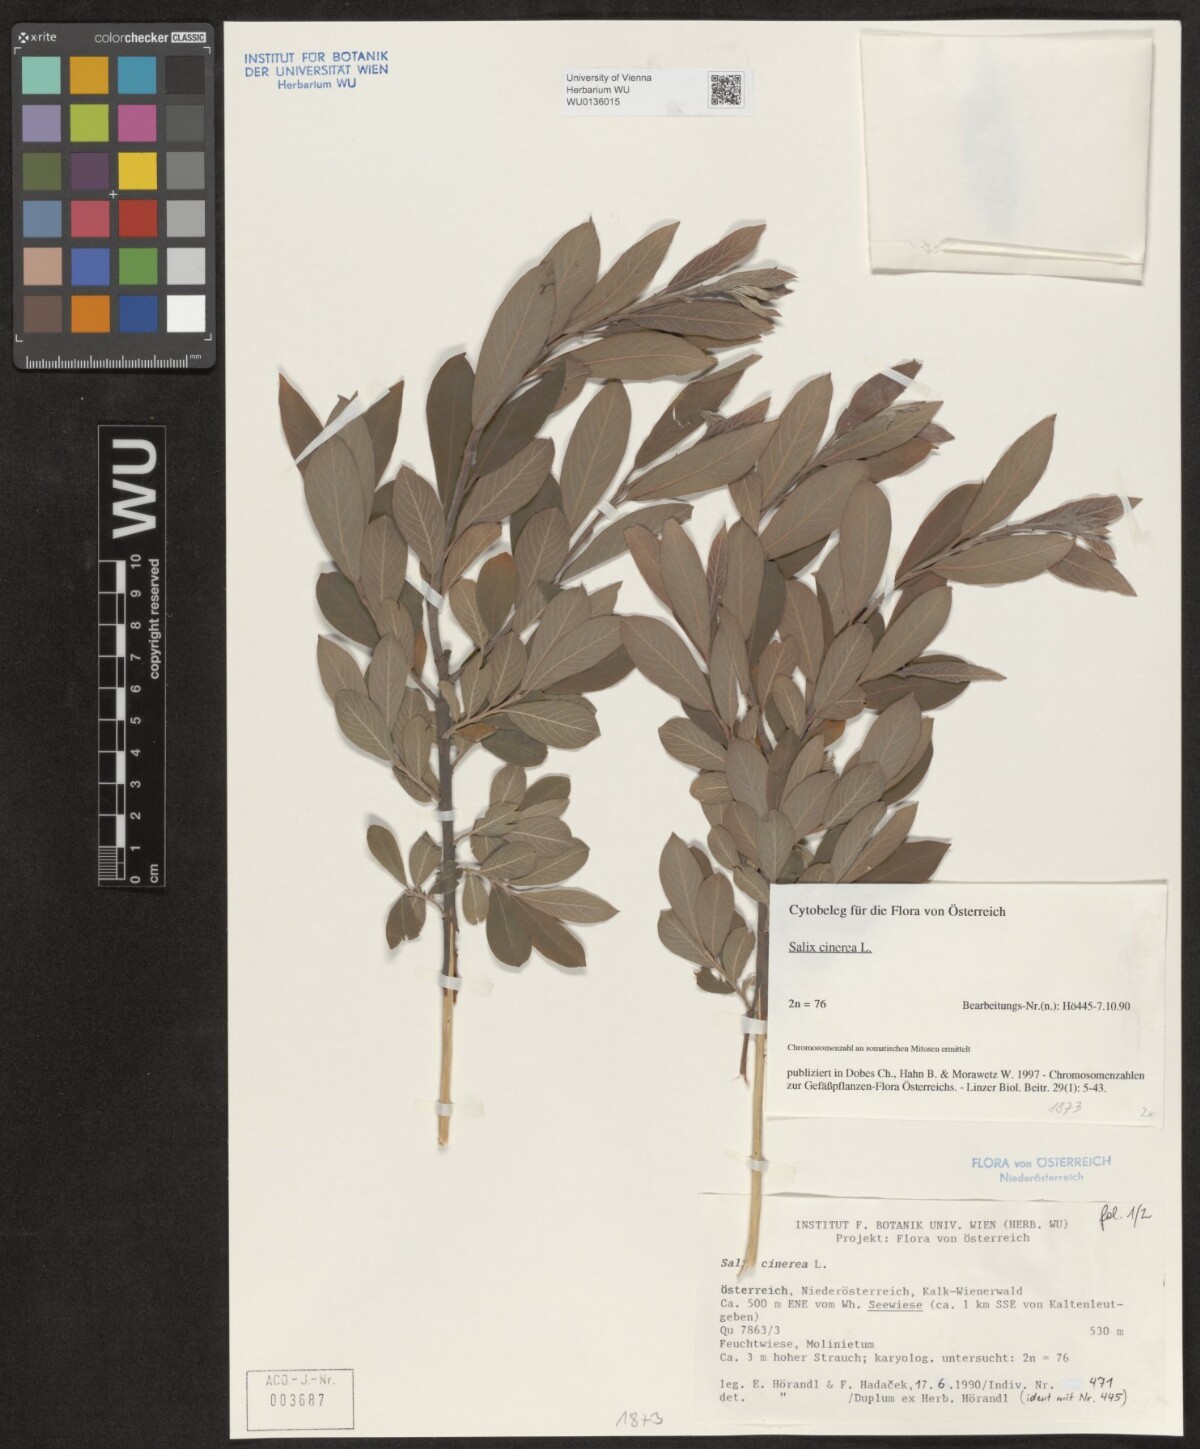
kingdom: Plantae
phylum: Tracheophyta
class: Magnoliopsida
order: Malpighiales
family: Salicaceae
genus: Salix
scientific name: Salix cinerea
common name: Common sallow
